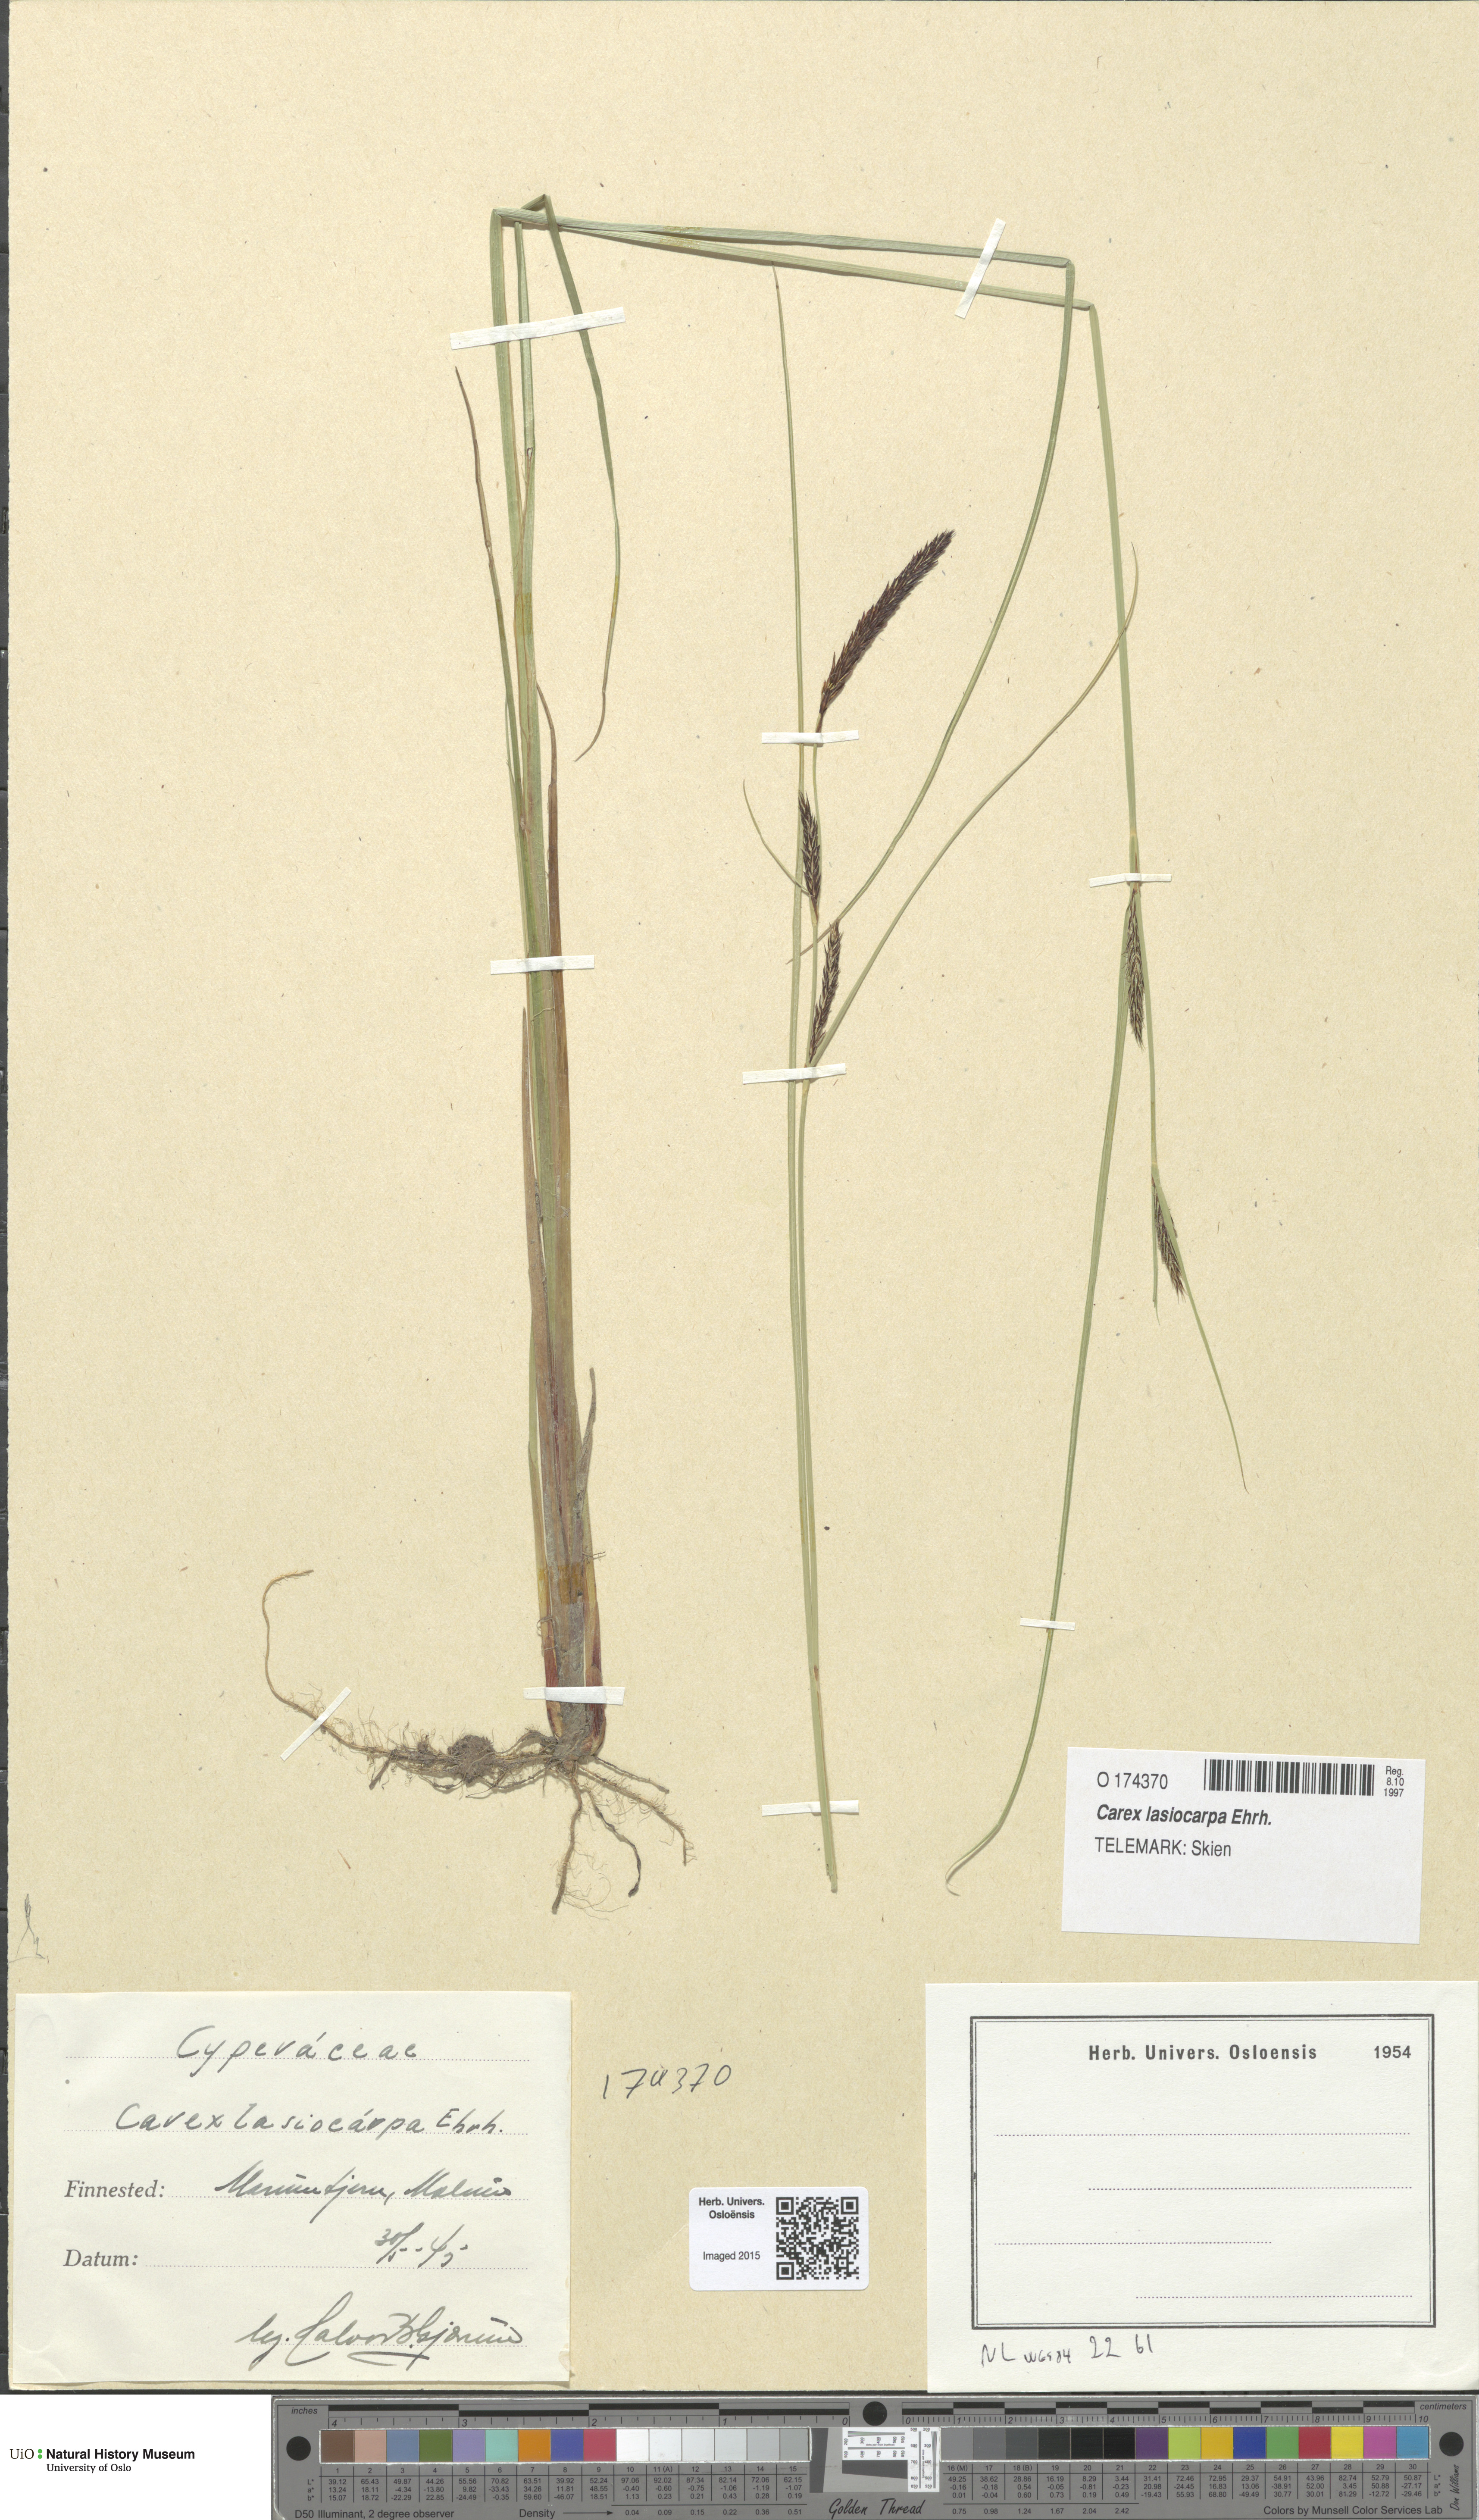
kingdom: Plantae
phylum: Tracheophyta
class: Liliopsida
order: Poales
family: Cyperaceae
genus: Carex
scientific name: Carex lasiocarpa
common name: Slender sedge
